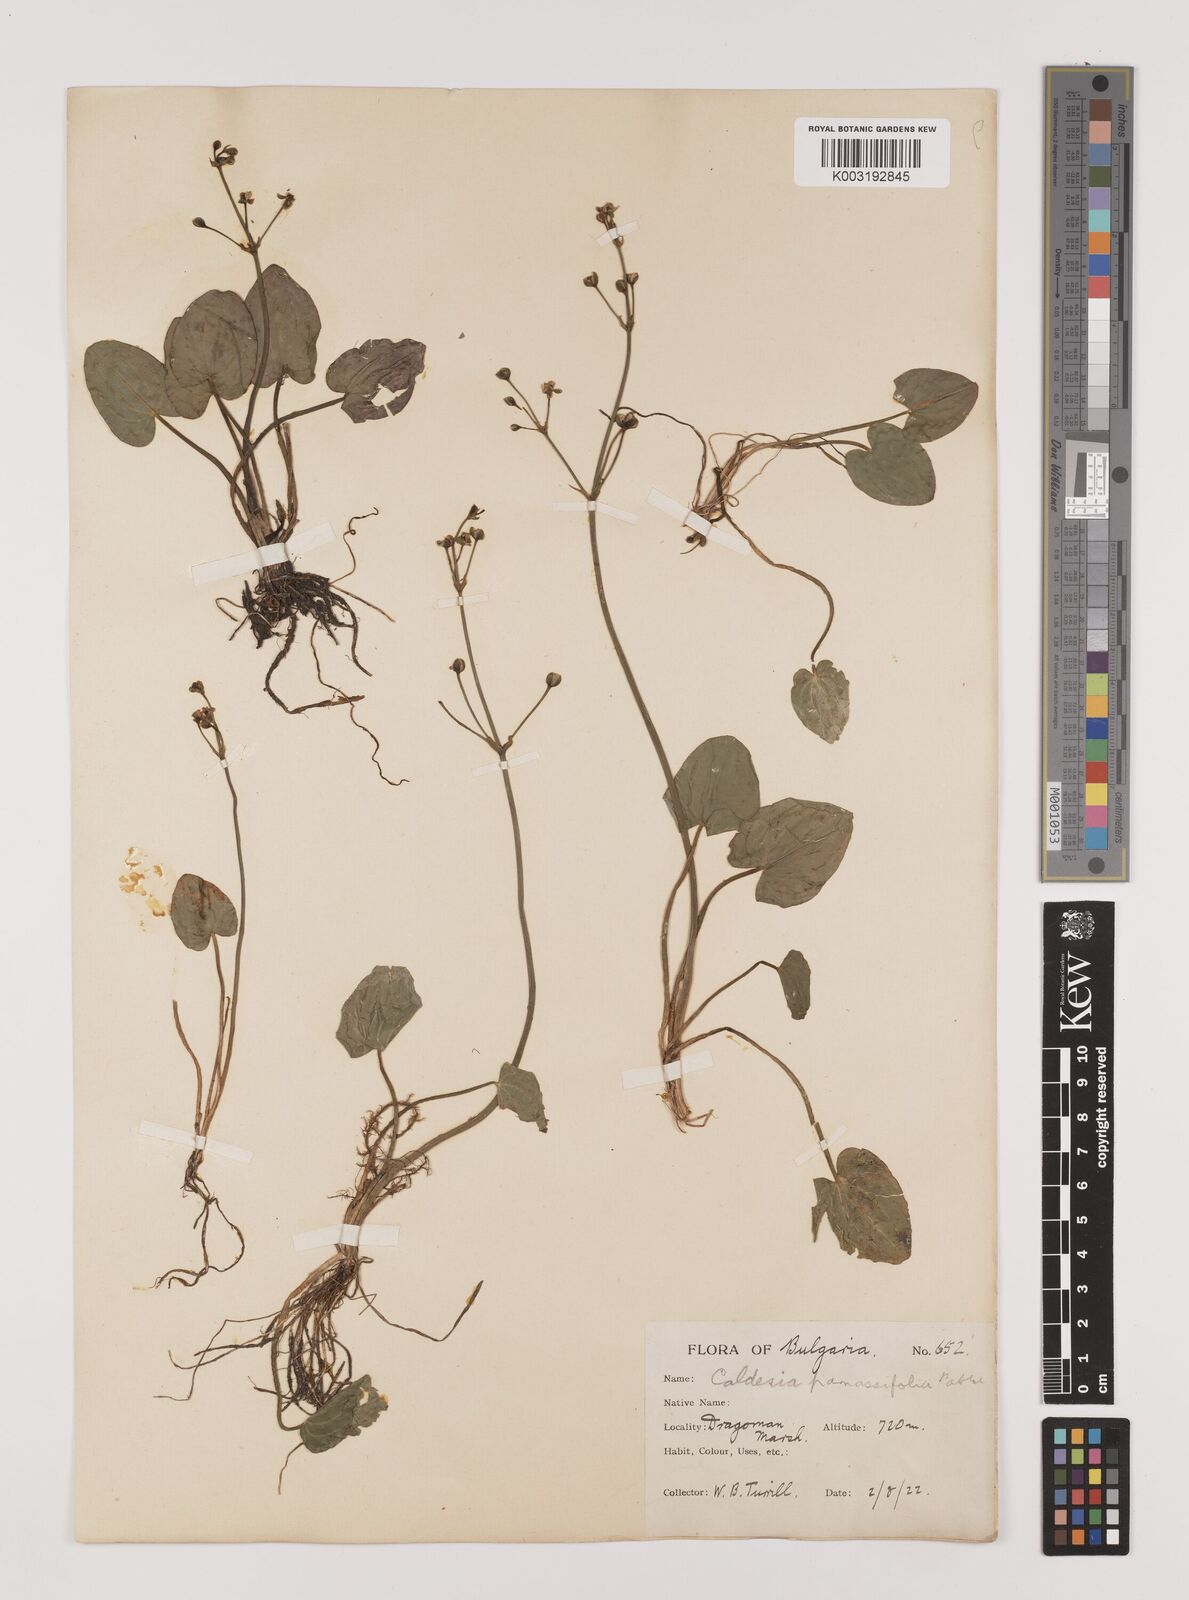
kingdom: Plantae
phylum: Tracheophyta
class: Liliopsida
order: Alismatales
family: Alismataceae
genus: Caldesia
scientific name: Caldesia parnassifolia
